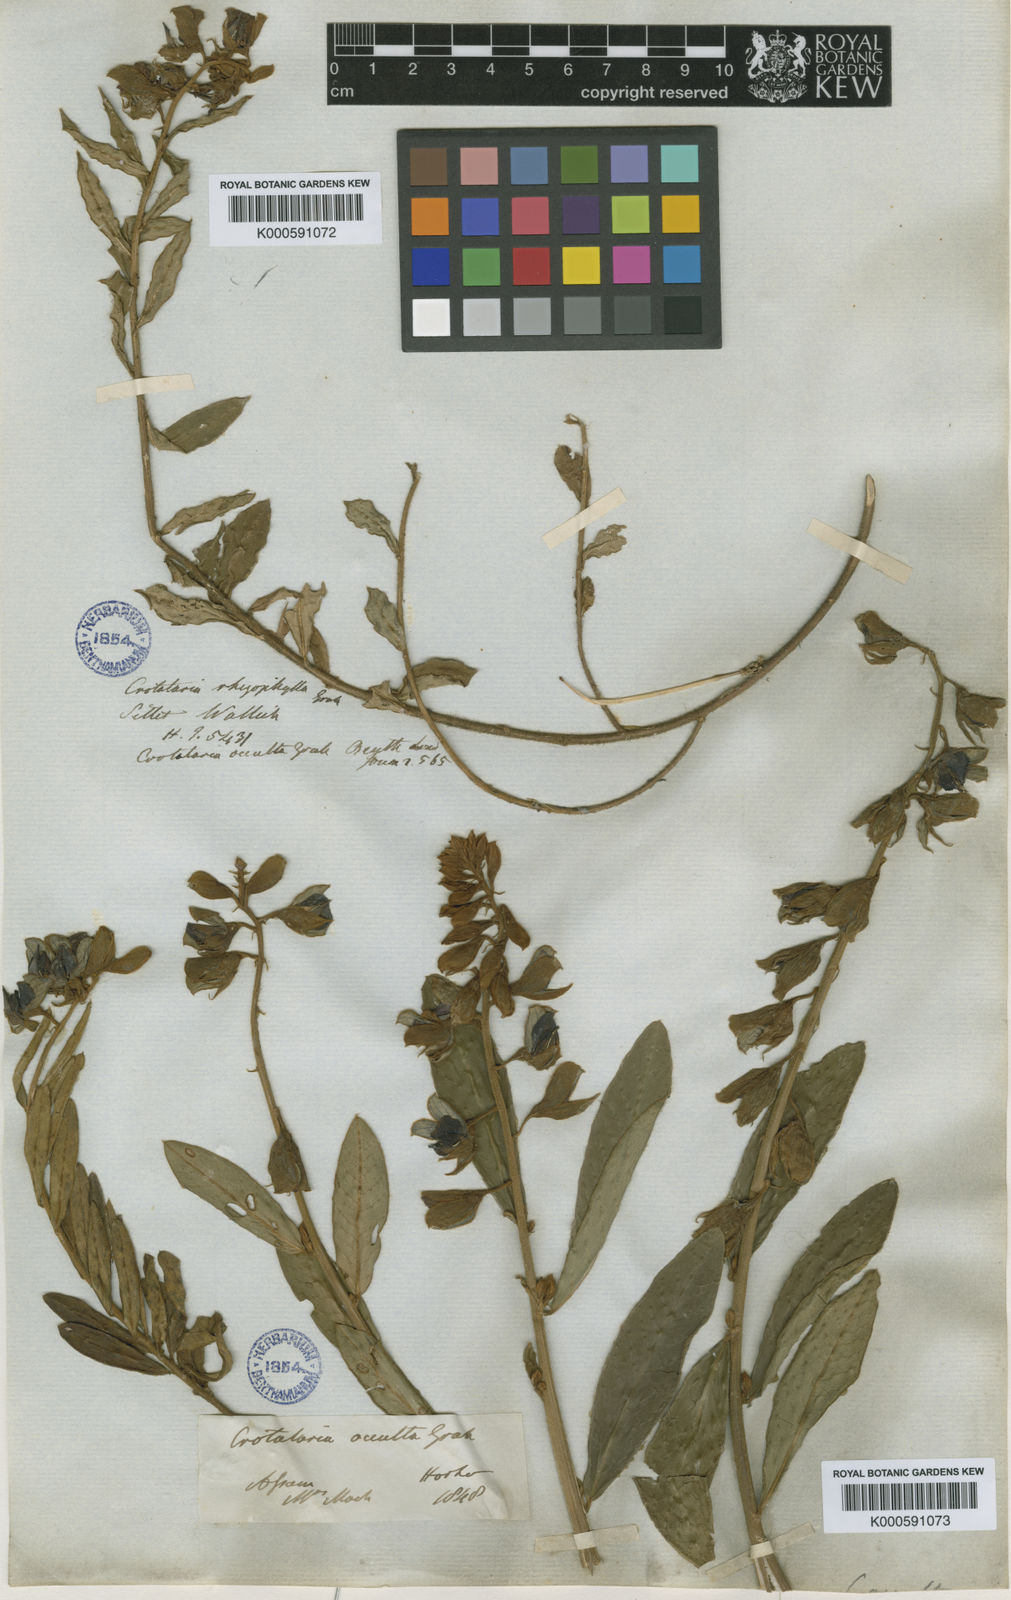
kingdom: Plantae
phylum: Tracheophyta
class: Magnoliopsida
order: Fabales
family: Fabaceae
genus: Crotalaria
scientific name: Crotalaria occulta
